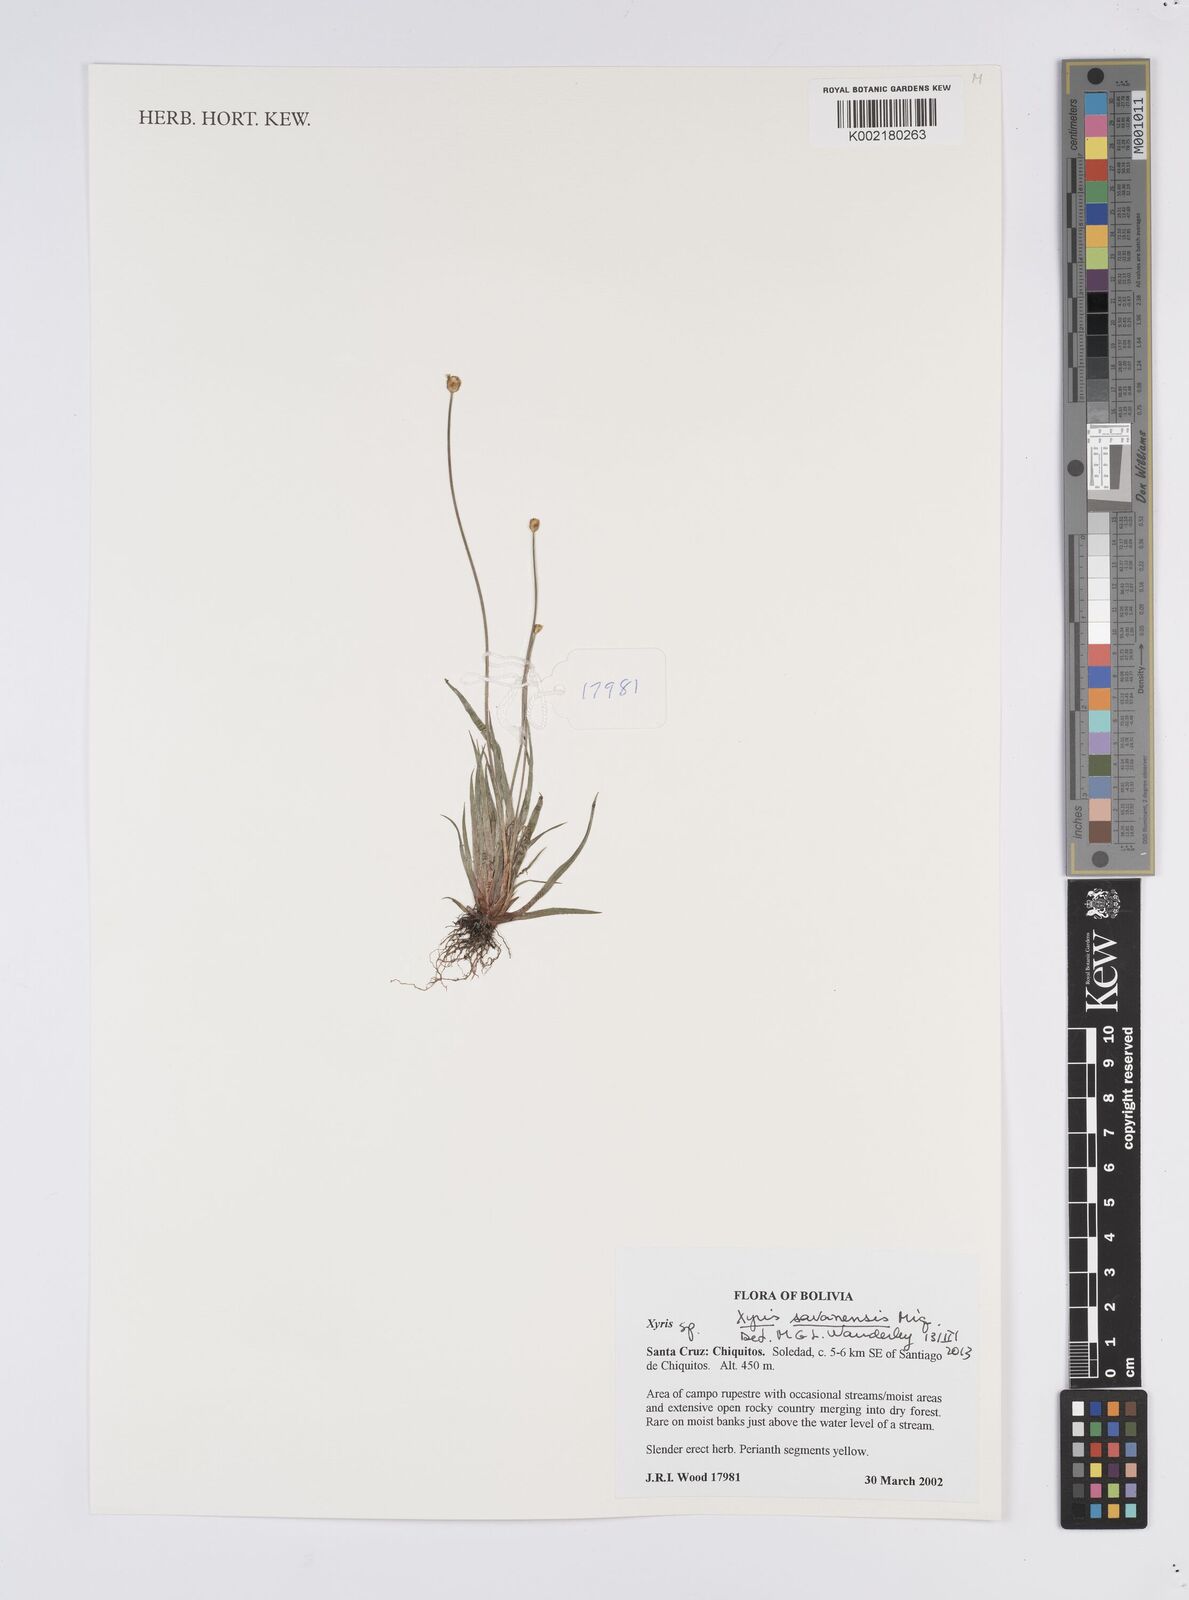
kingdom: Plantae
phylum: Tracheophyta
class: Liliopsida
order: Poales
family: Xyridaceae
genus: Xyris
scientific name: Xyris savanensis
